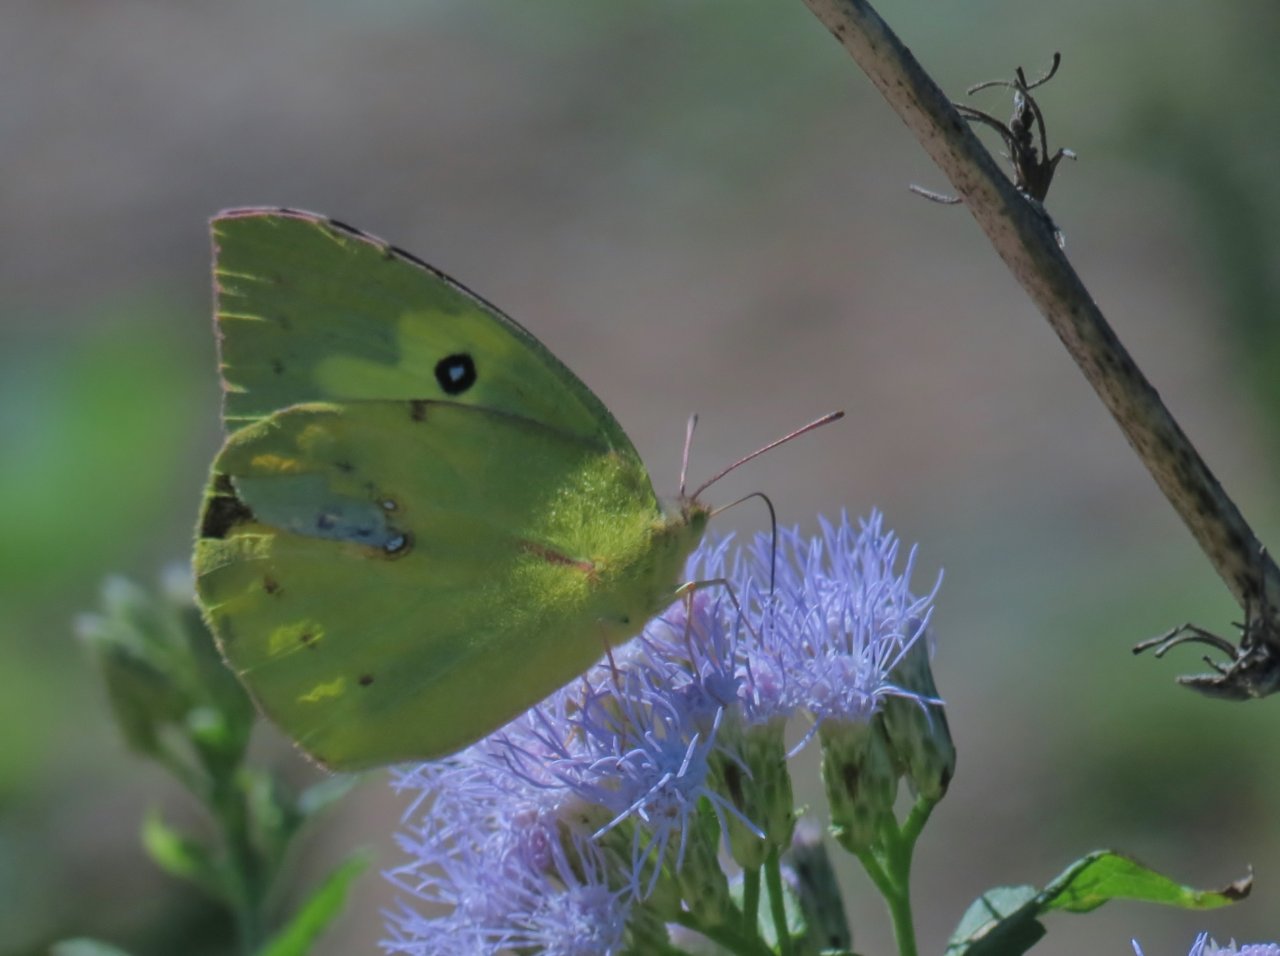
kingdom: Animalia
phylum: Arthropoda
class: Insecta
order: Lepidoptera
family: Pieridae
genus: Zerene
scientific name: Zerene cesonia
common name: Southern Dogface
